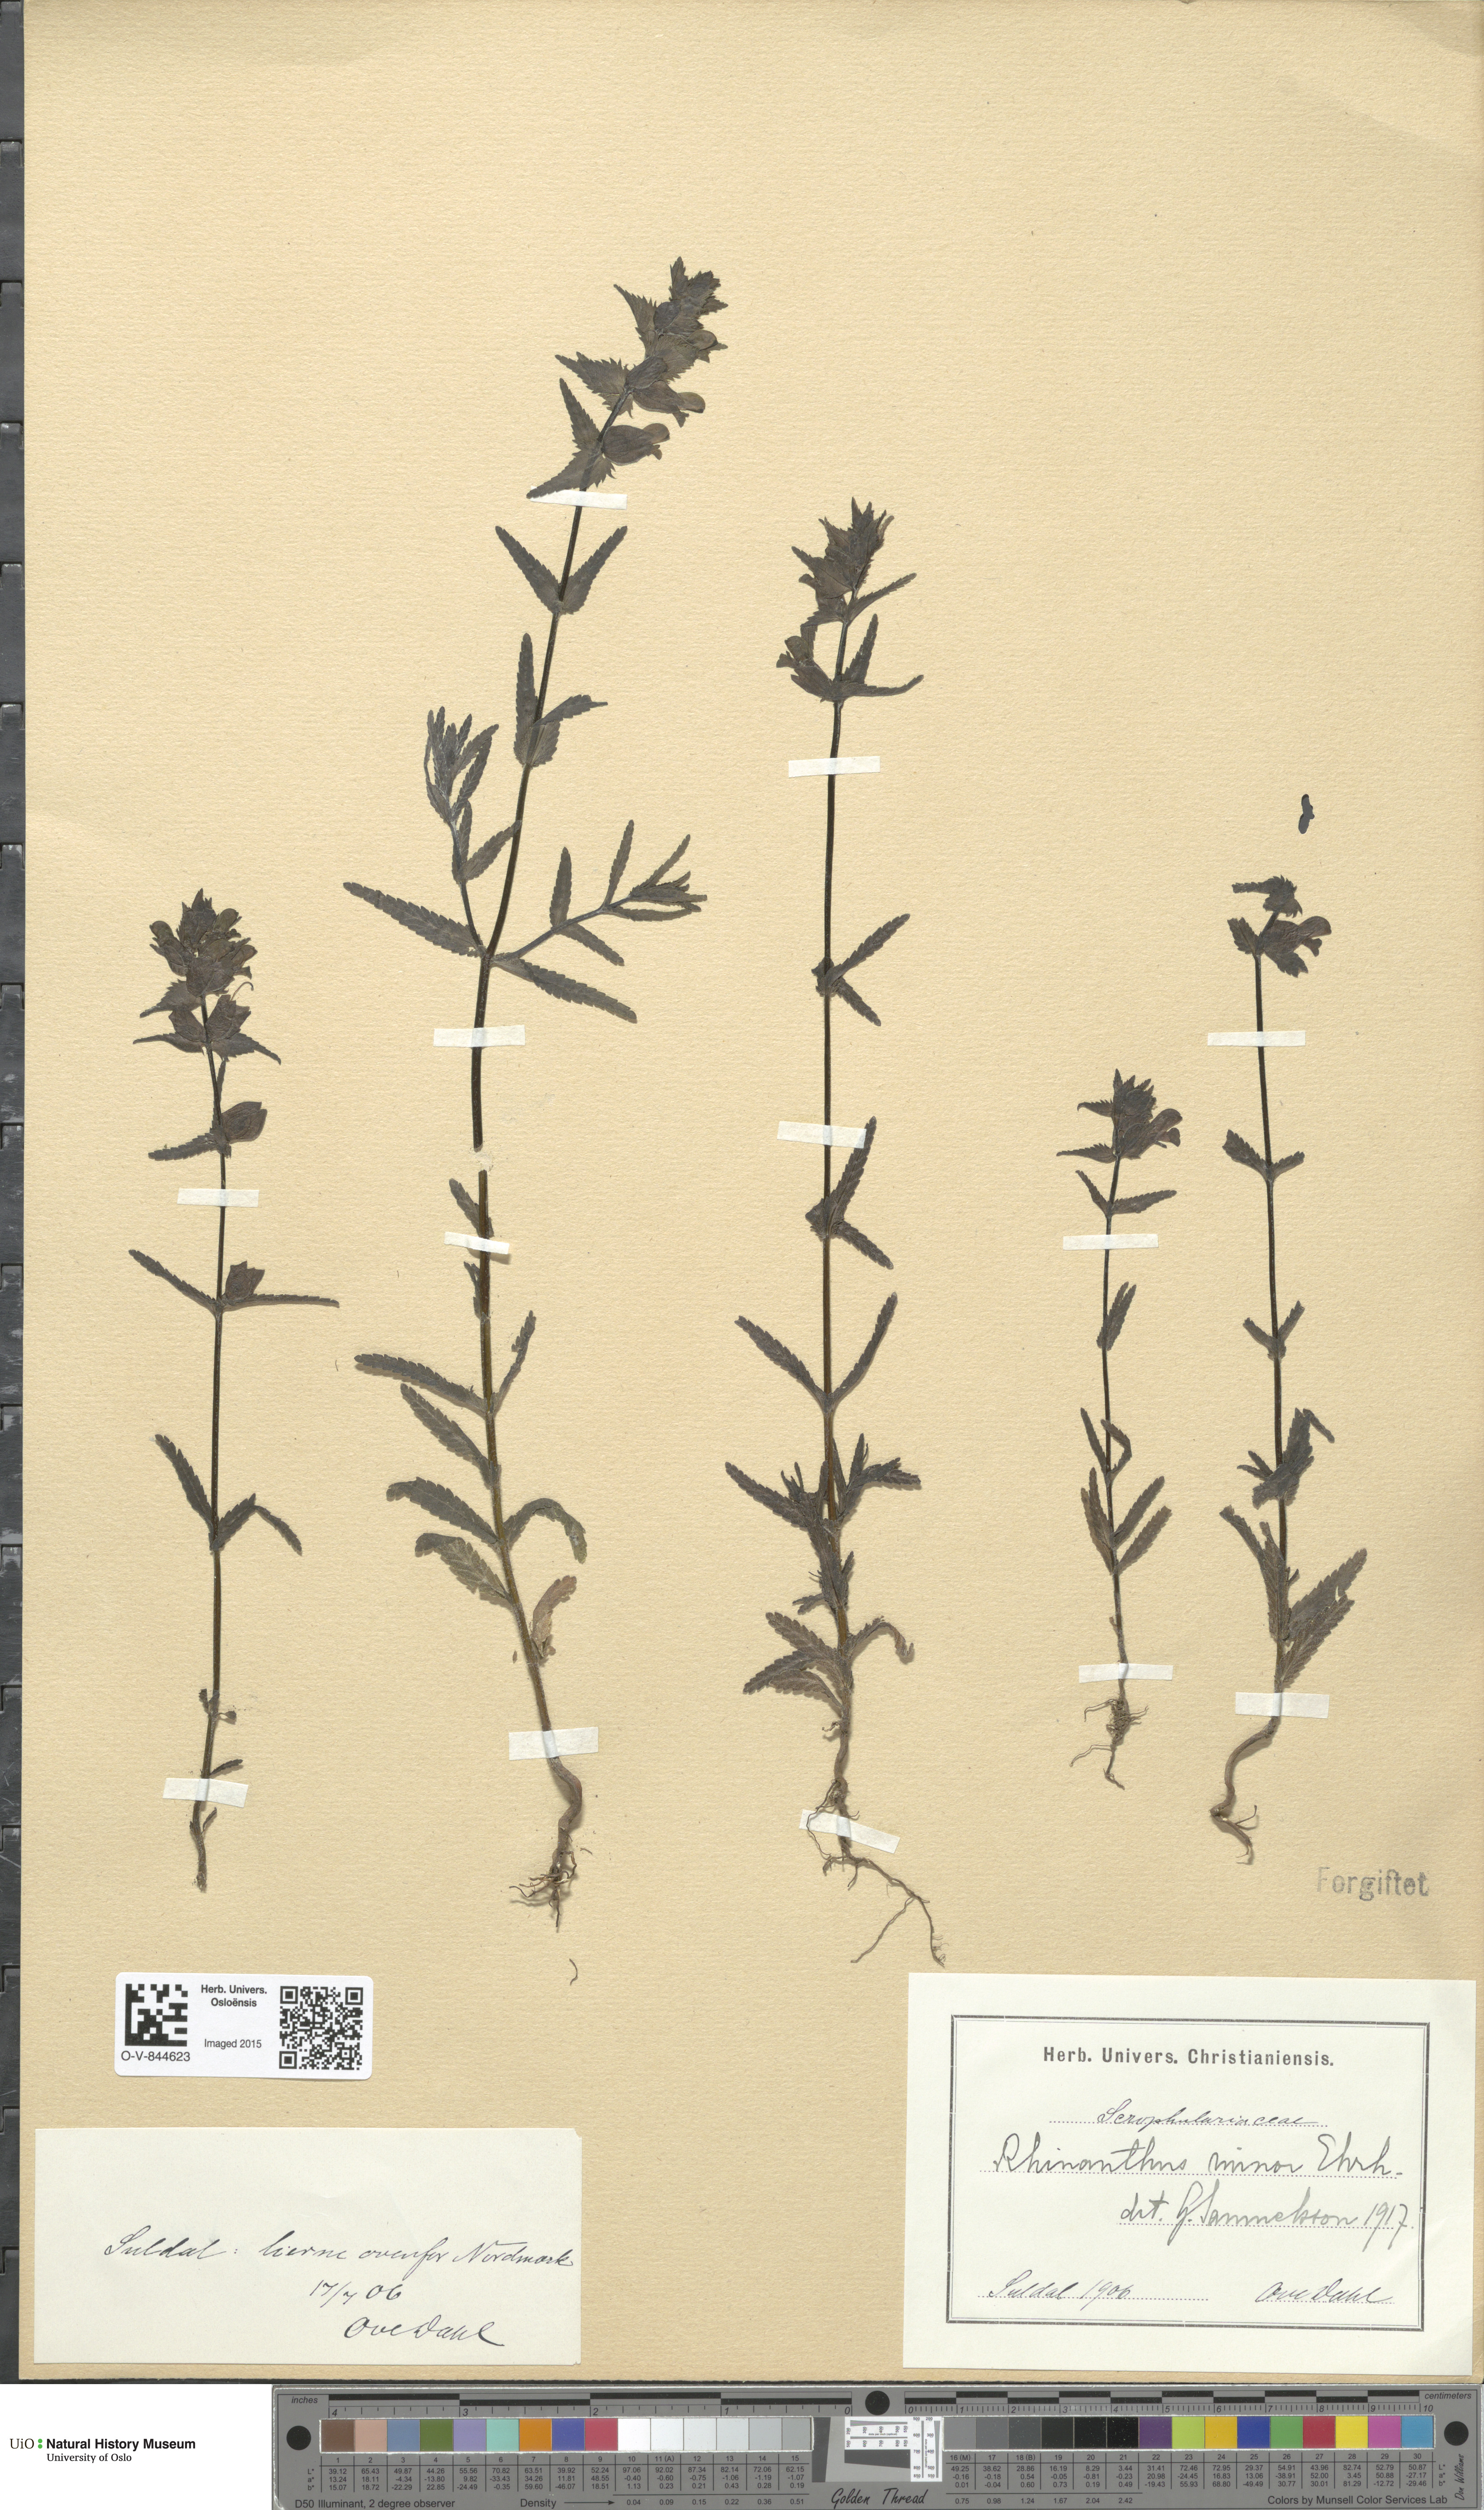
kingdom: Plantae
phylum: Tracheophyta
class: Magnoliopsida
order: Lamiales
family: Orobanchaceae
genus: Rhinanthus
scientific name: Rhinanthus minor
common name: Yellow-rattle
